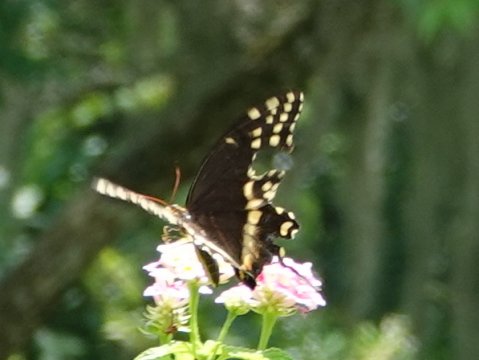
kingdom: Animalia
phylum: Arthropoda
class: Insecta
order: Lepidoptera
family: Papilionidae
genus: Pterourus
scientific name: Pterourus palamedes
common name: Palamedes Swallowtail
